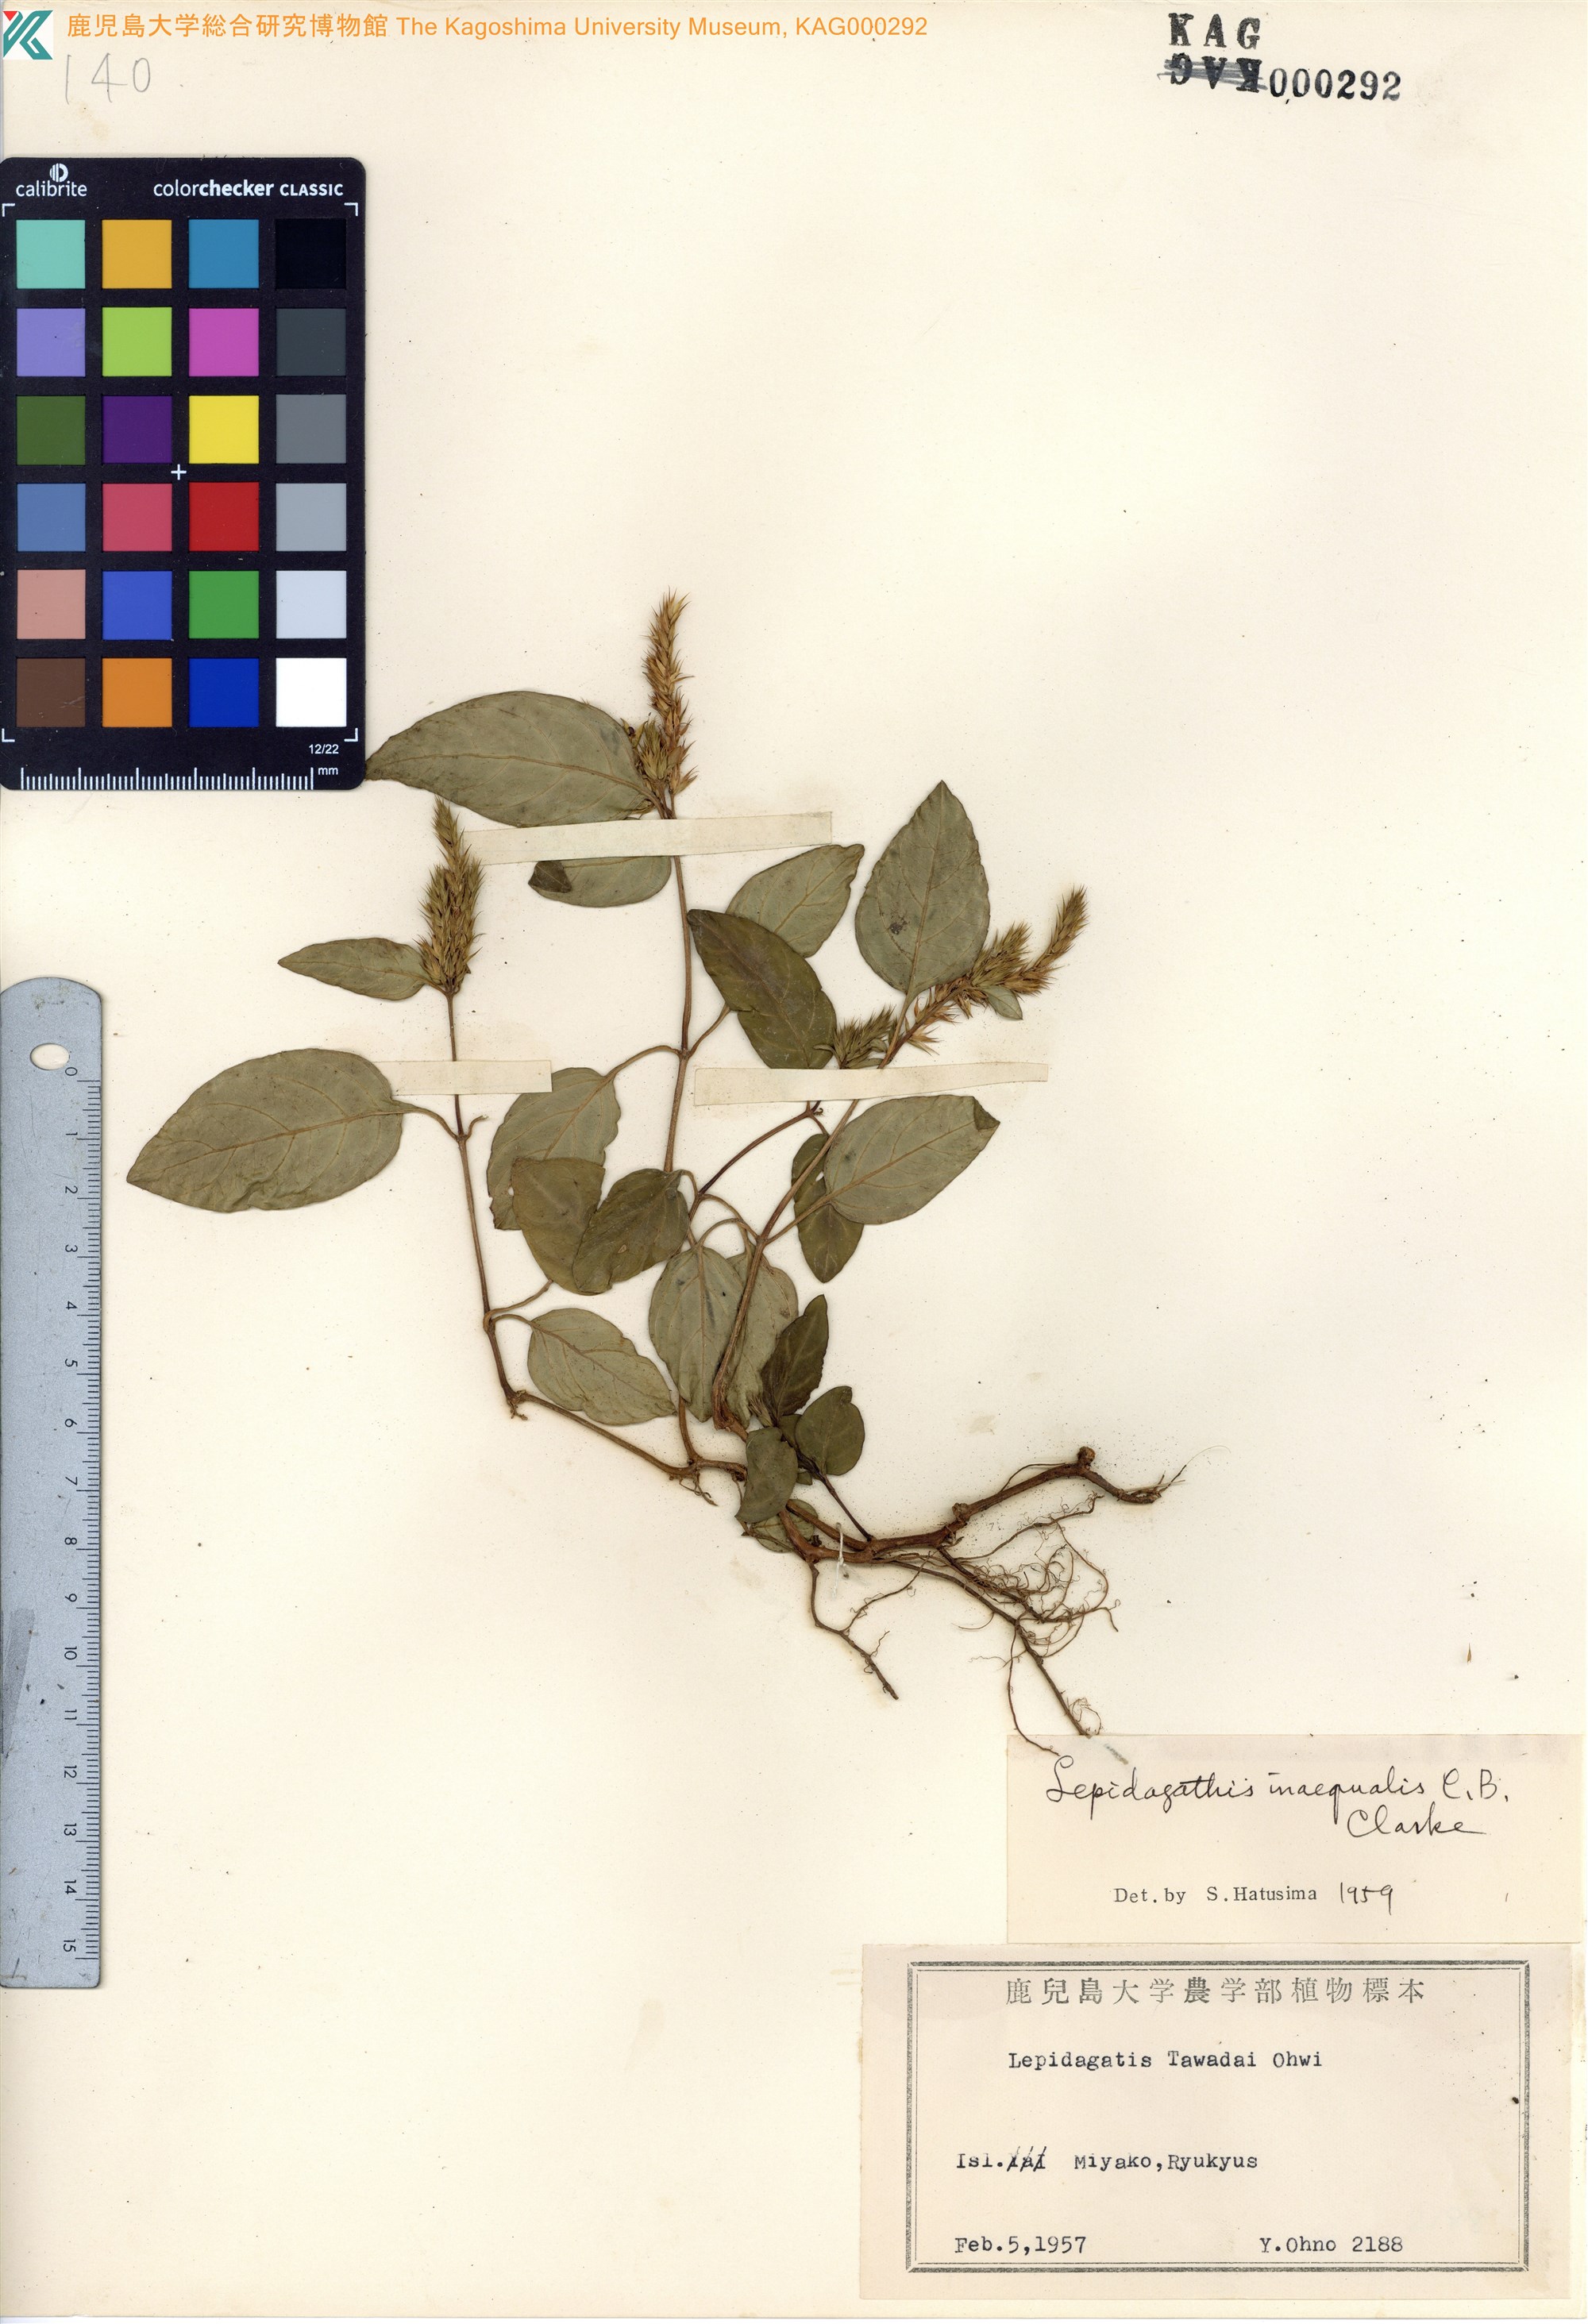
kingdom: Plantae
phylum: Tracheophyta
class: Magnoliopsida
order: Lamiales
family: Acanthaceae
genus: Lepidagathis
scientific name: Lepidagathis inaequalis
